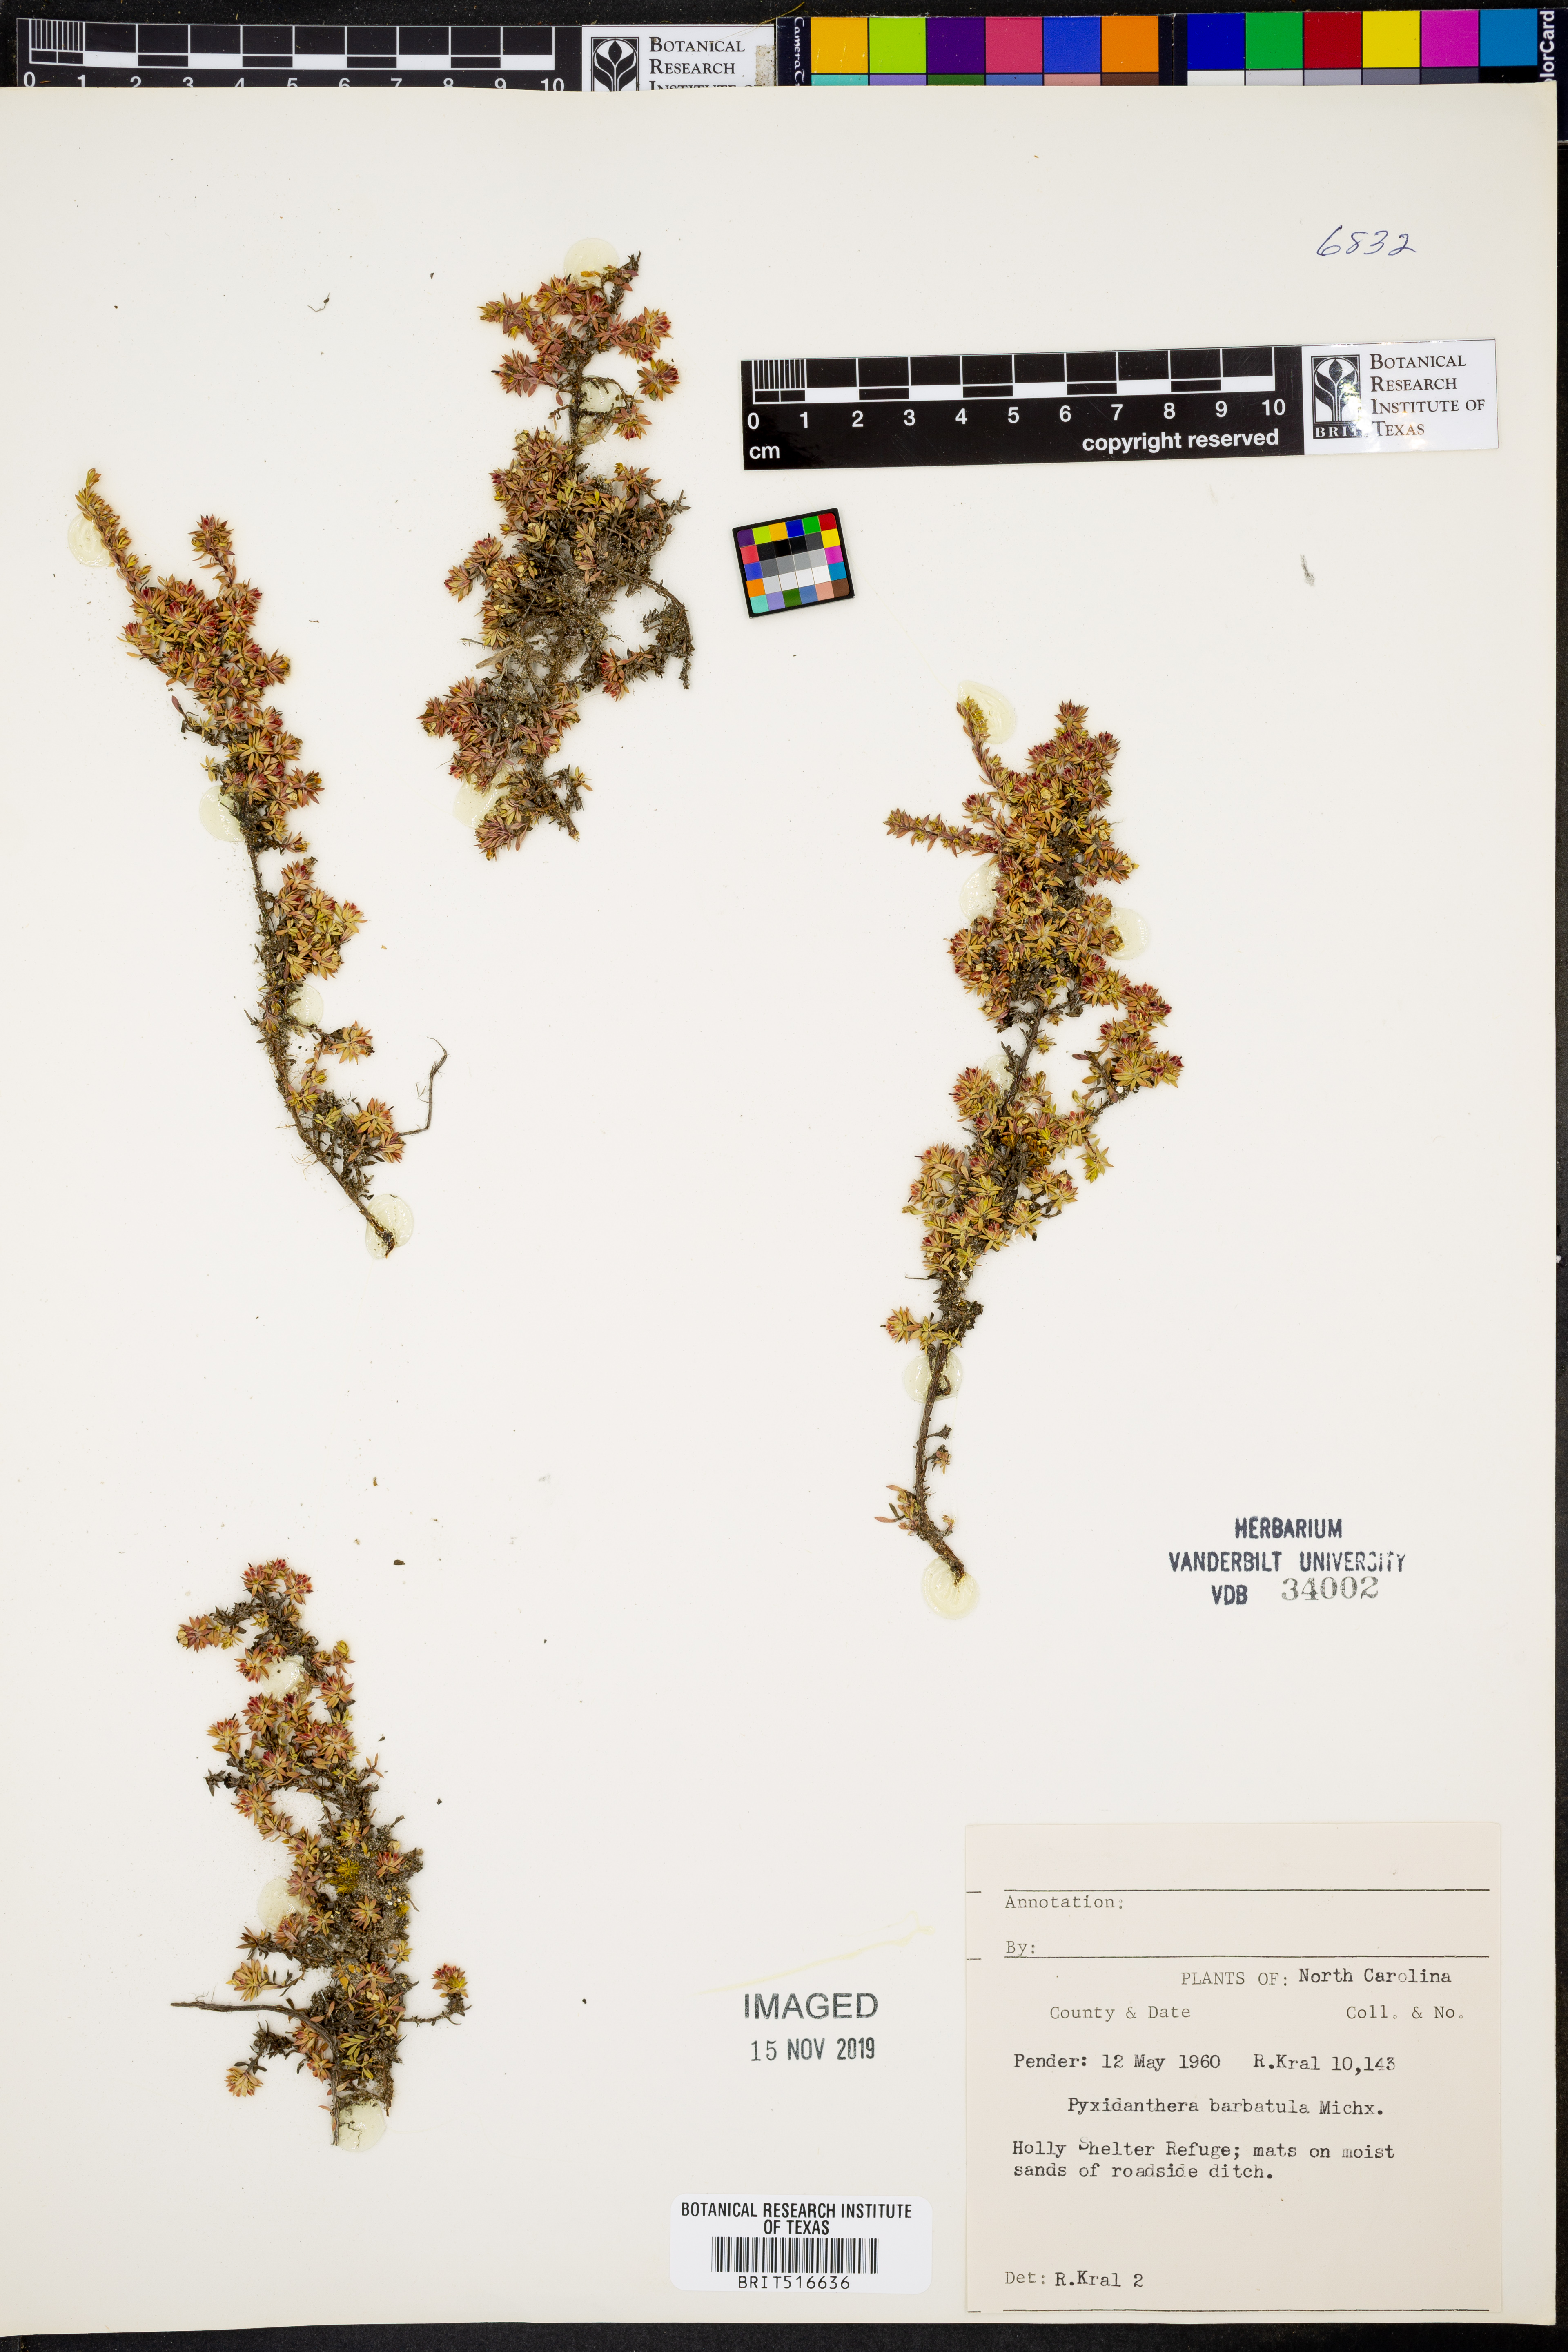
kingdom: Plantae
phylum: Tracheophyta
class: Magnoliopsida
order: Ericales
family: Diapensiaceae
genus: Pyxidanthera
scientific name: Pyxidanthera barbulata
